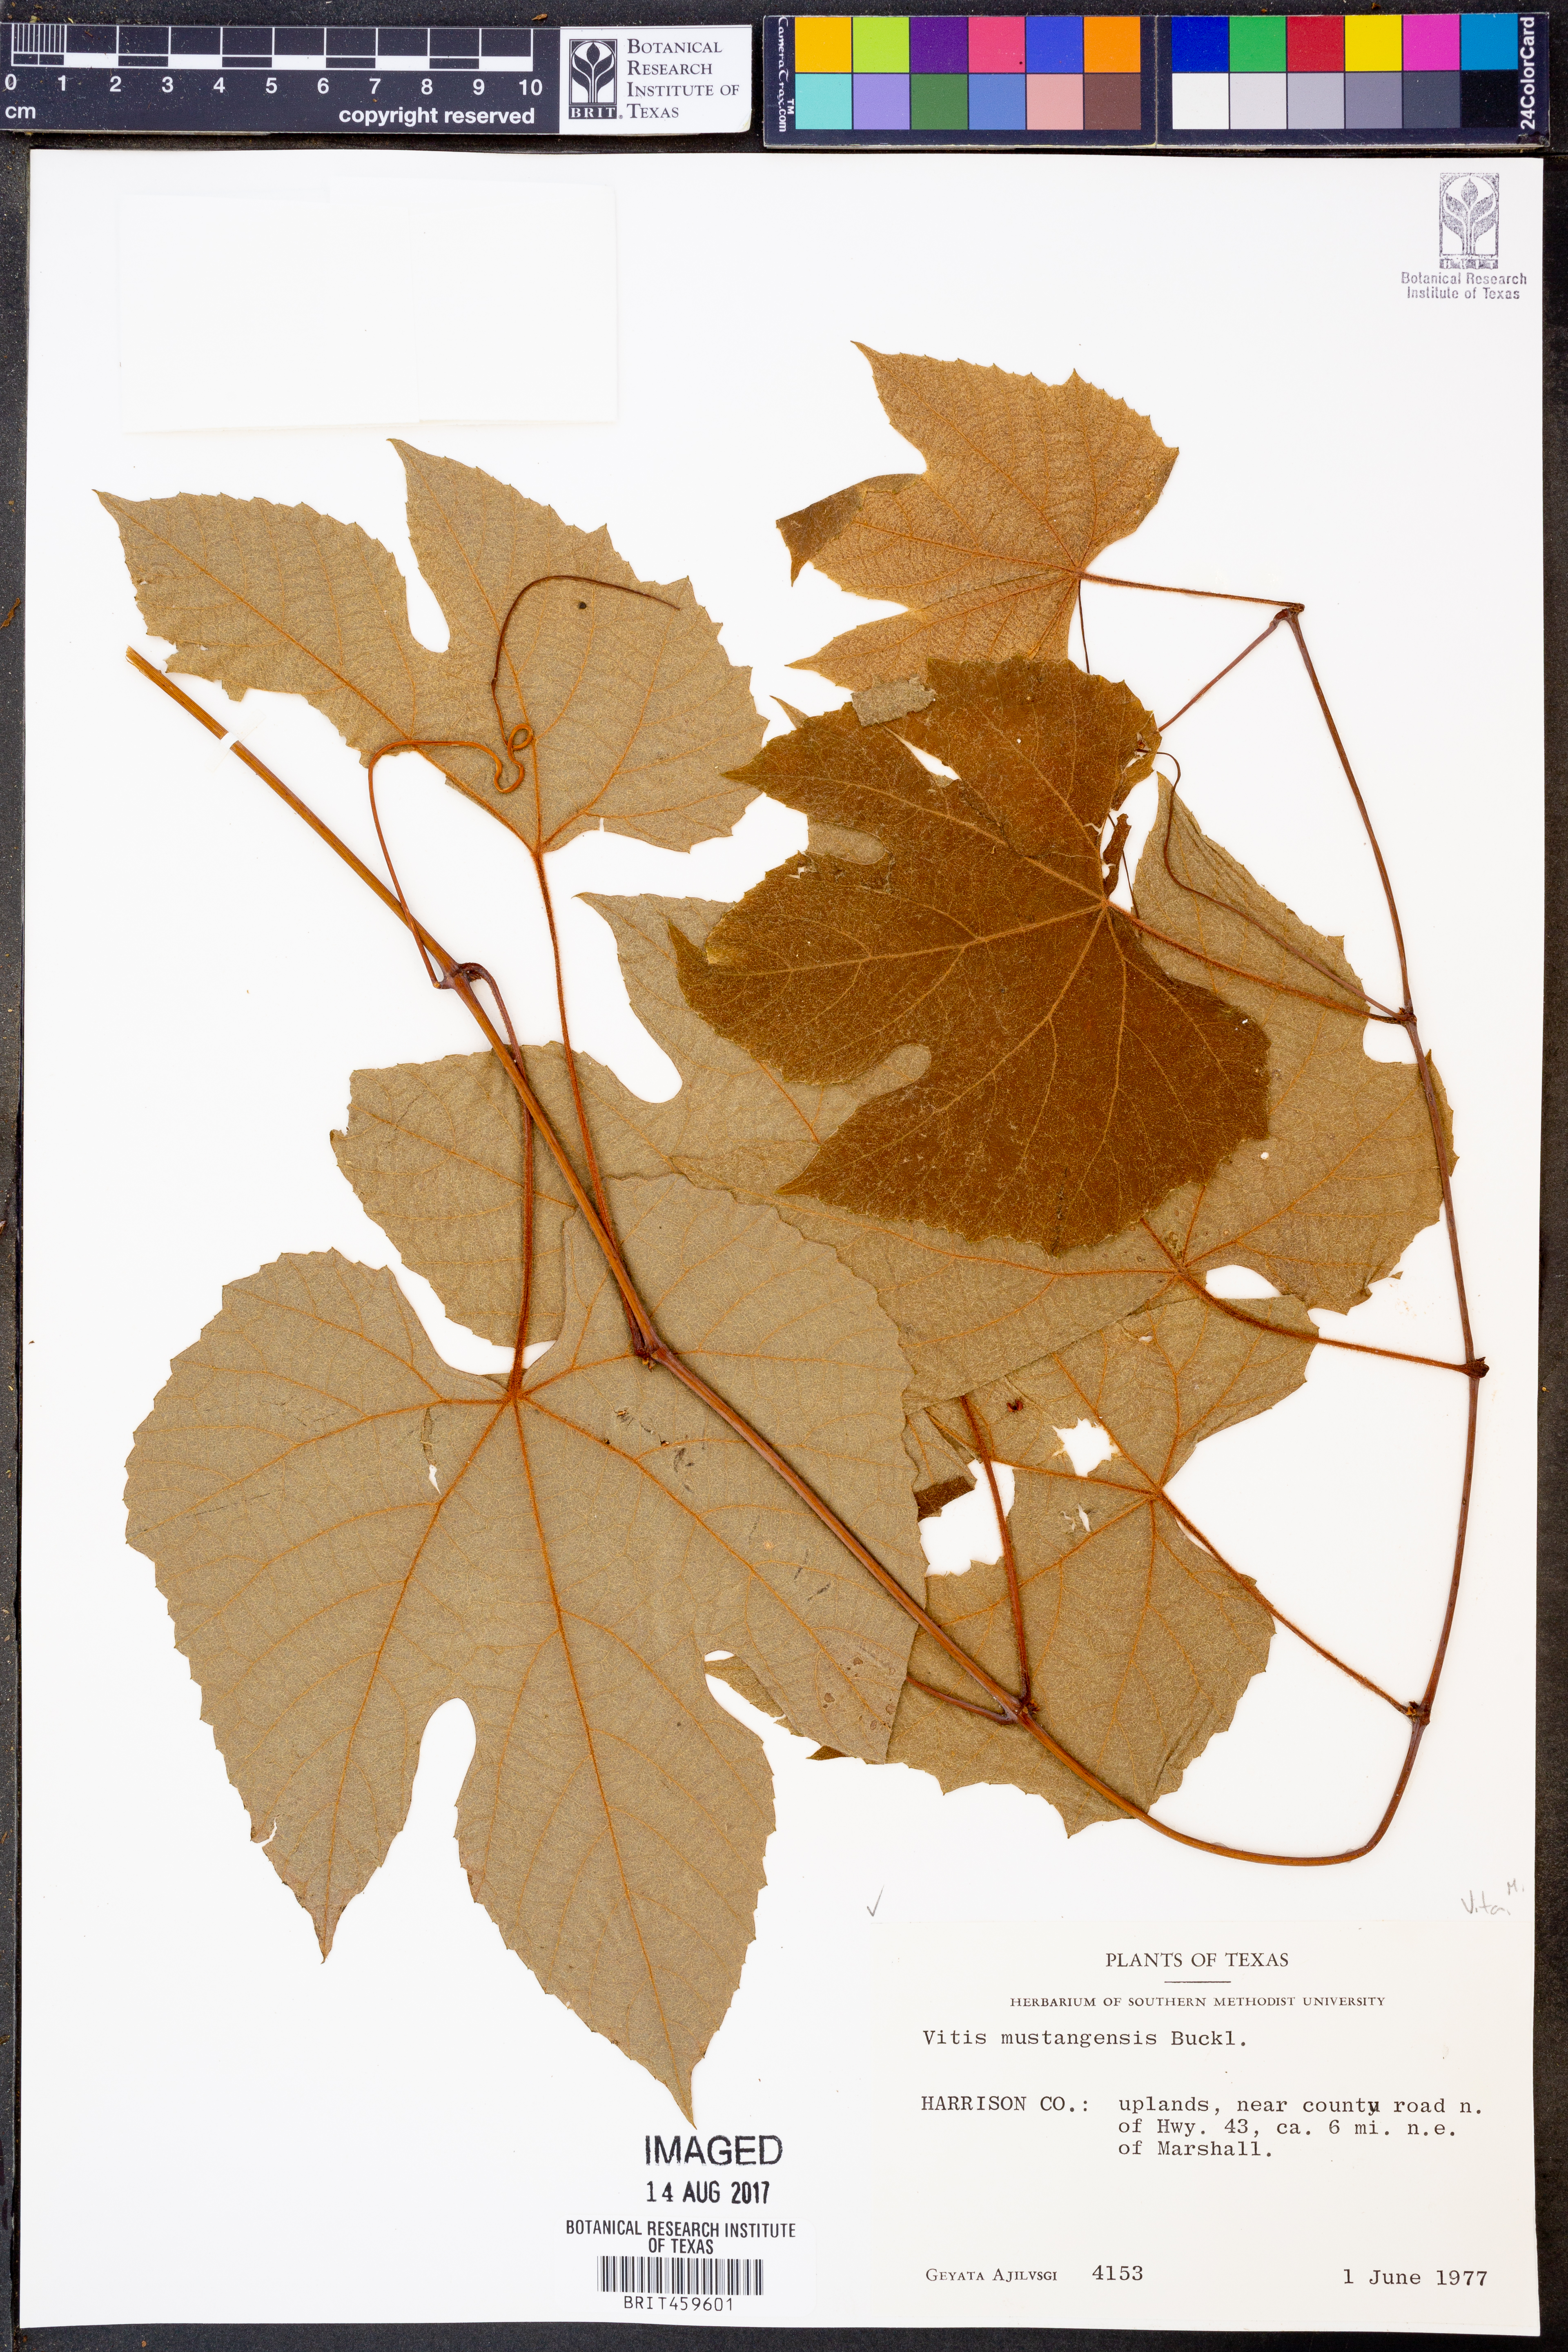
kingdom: Plantae
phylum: Tracheophyta
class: Magnoliopsida
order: Vitales
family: Vitaceae
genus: Vitis
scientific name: Vitis mustangensis
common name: Mustang grape
